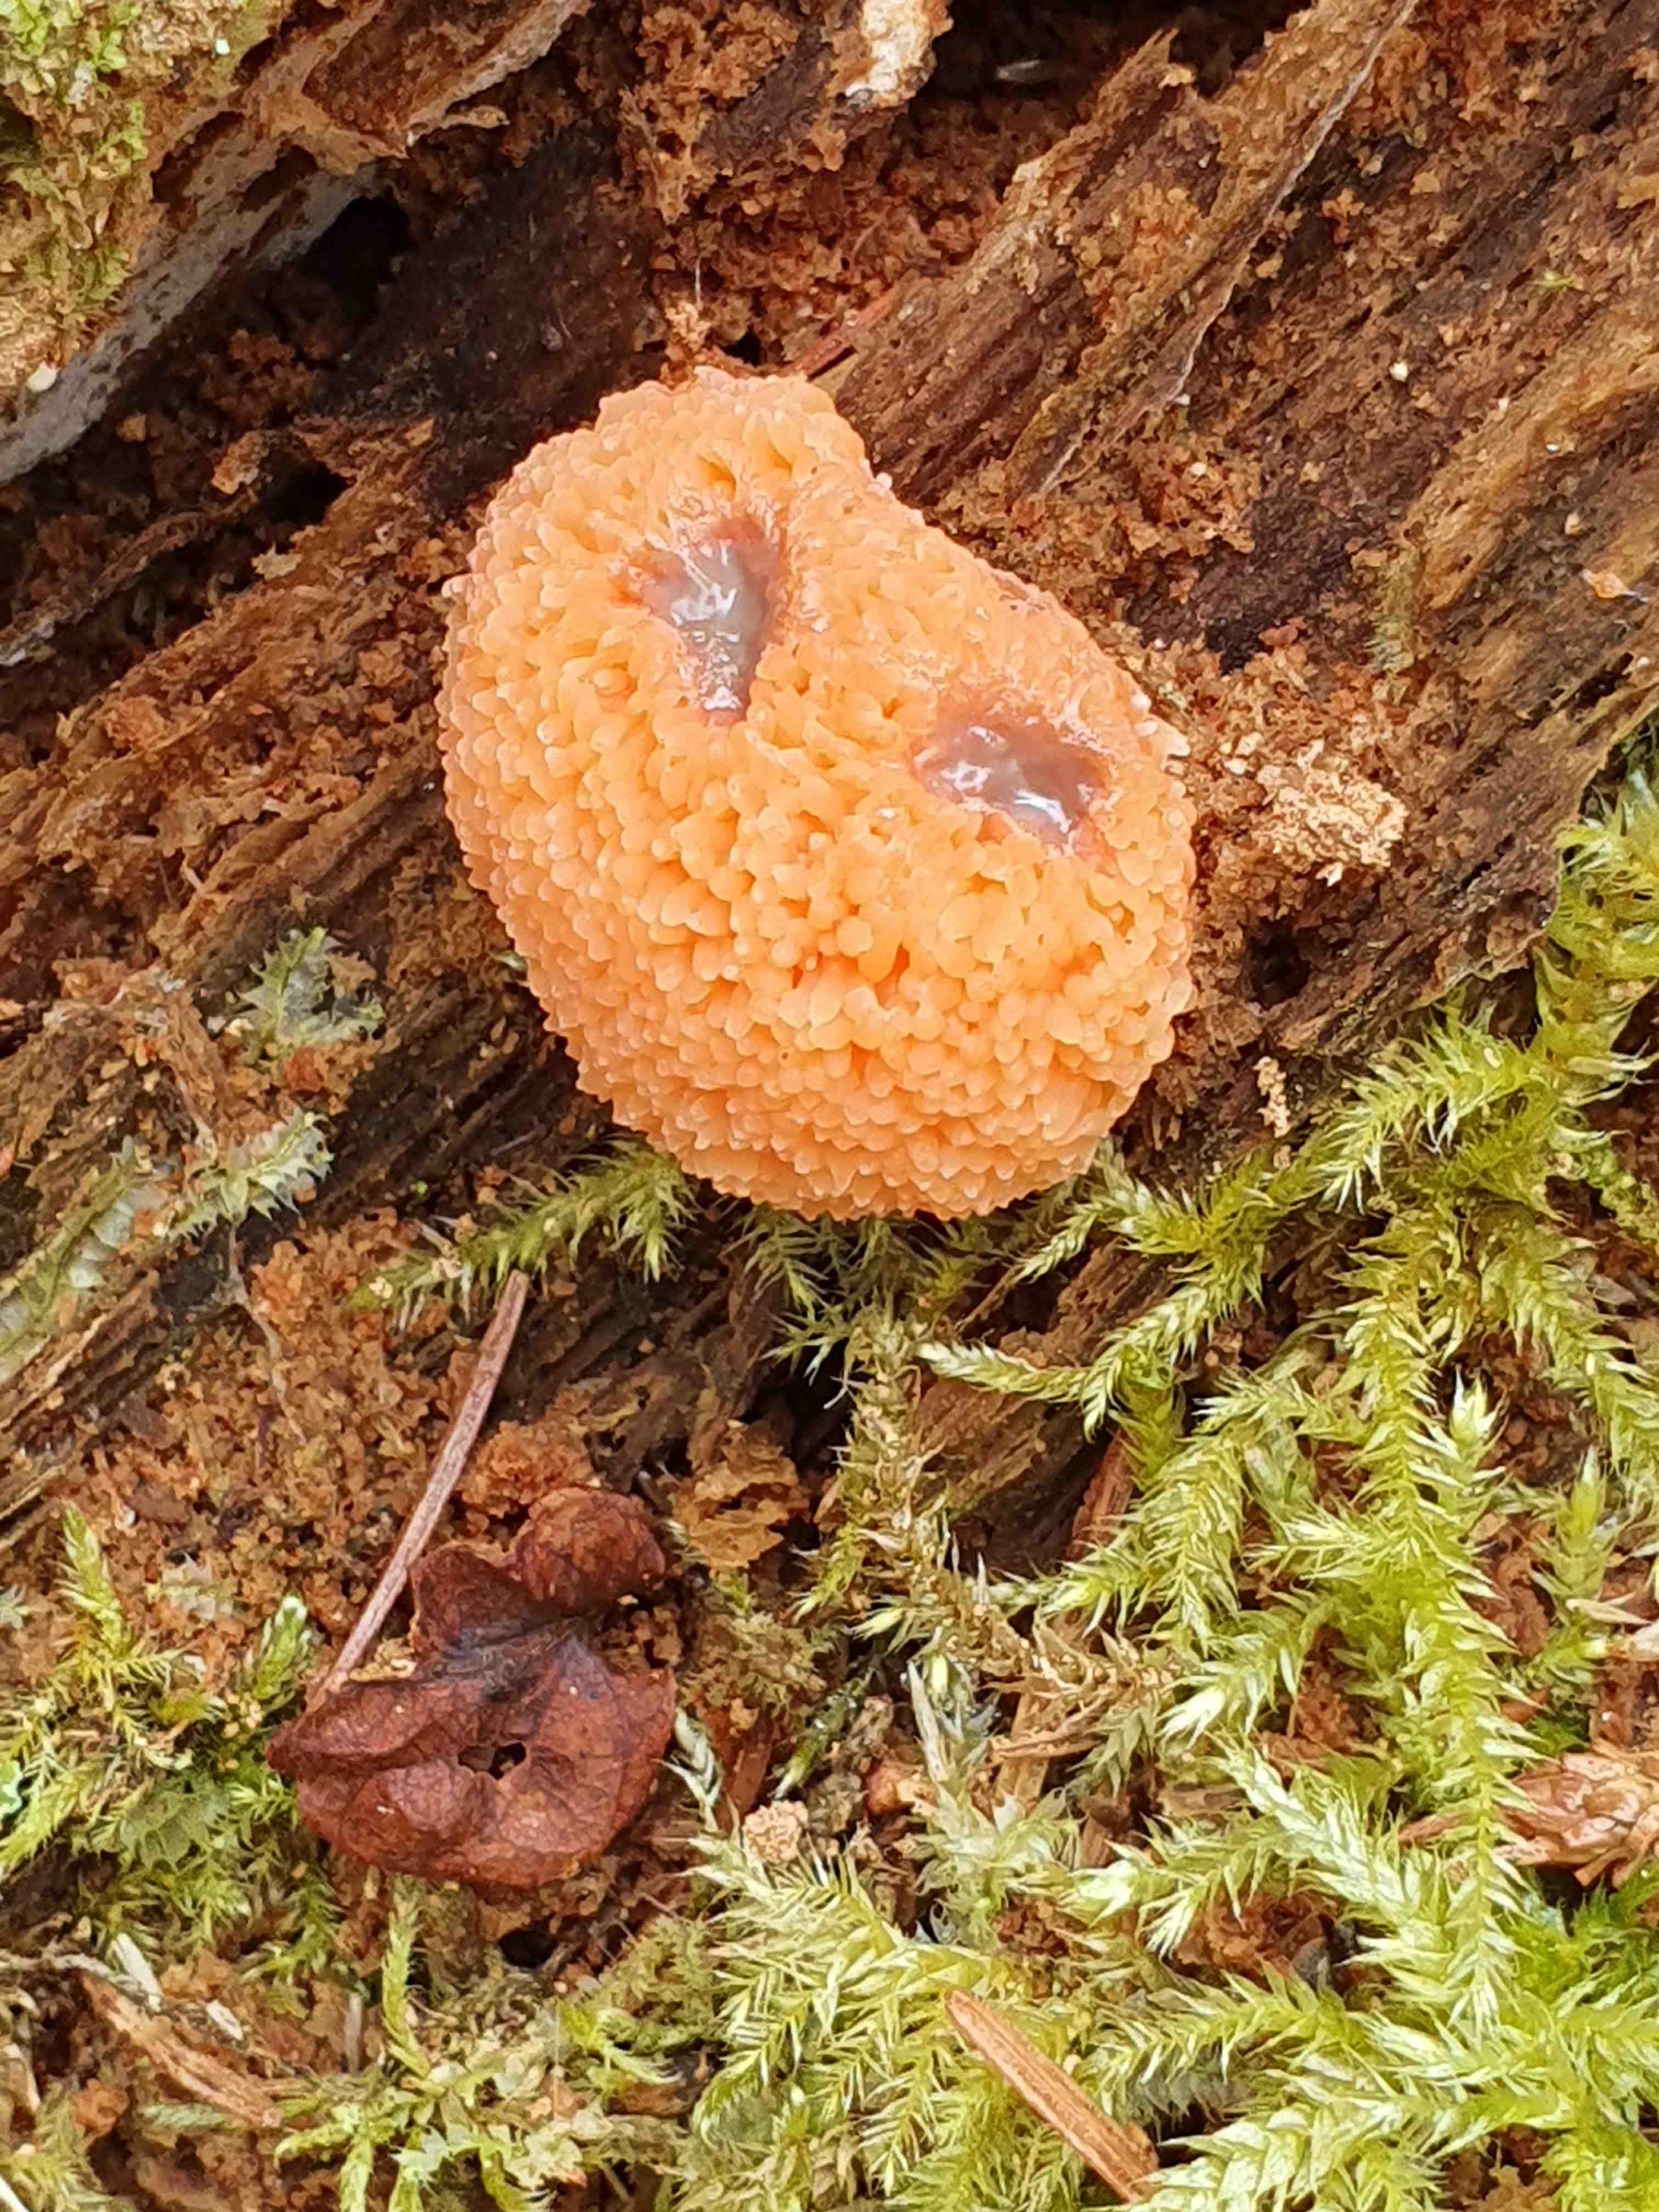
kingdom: Protozoa
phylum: Mycetozoa
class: Myxomycetes
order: Cribrariales
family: Tubiferaceae
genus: Tubifera
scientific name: Tubifera ferruginosa
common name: kanel-støvrør
